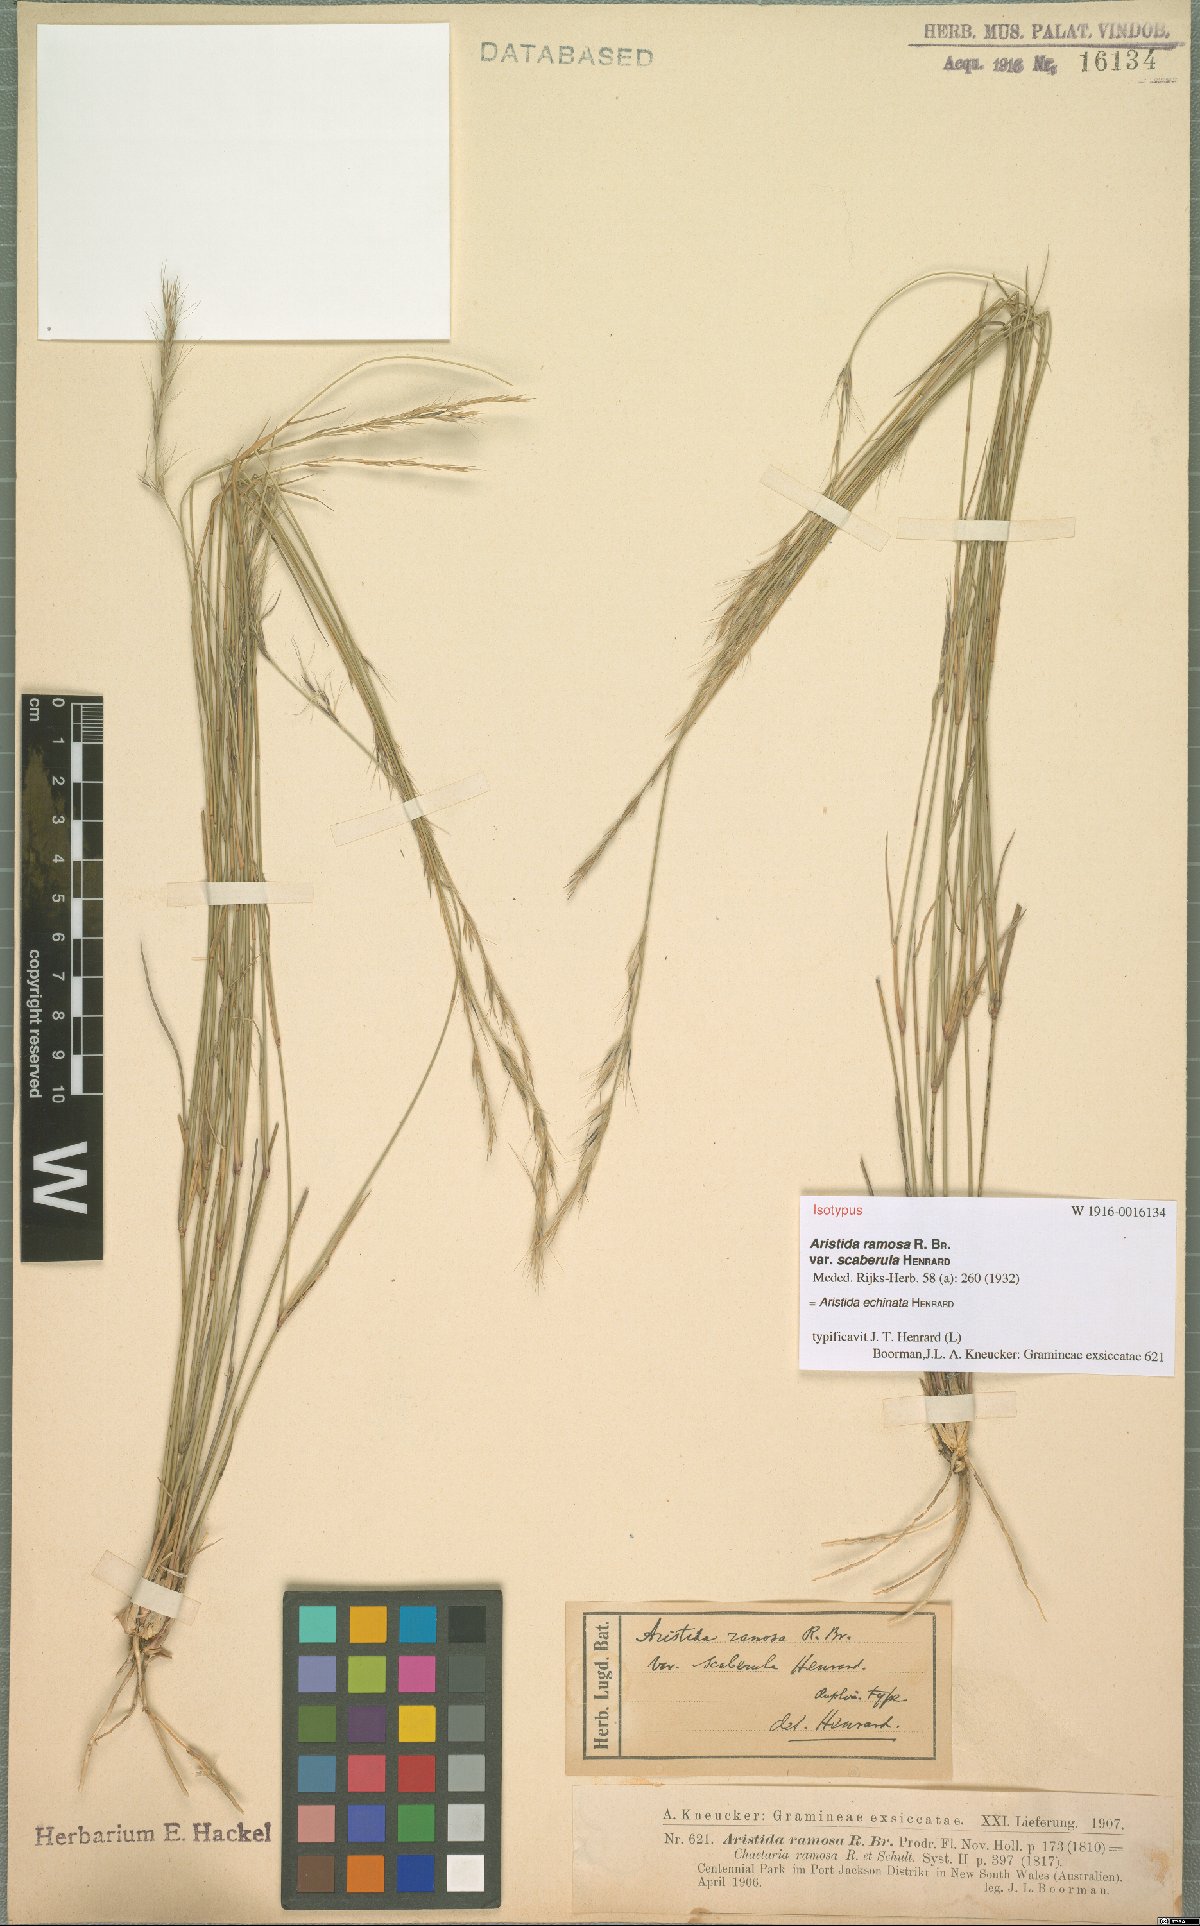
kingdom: Plantae
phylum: Tracheophyta
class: Liliopsida
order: Poales
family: Poaceae
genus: Aristida
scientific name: Aristida echinata
